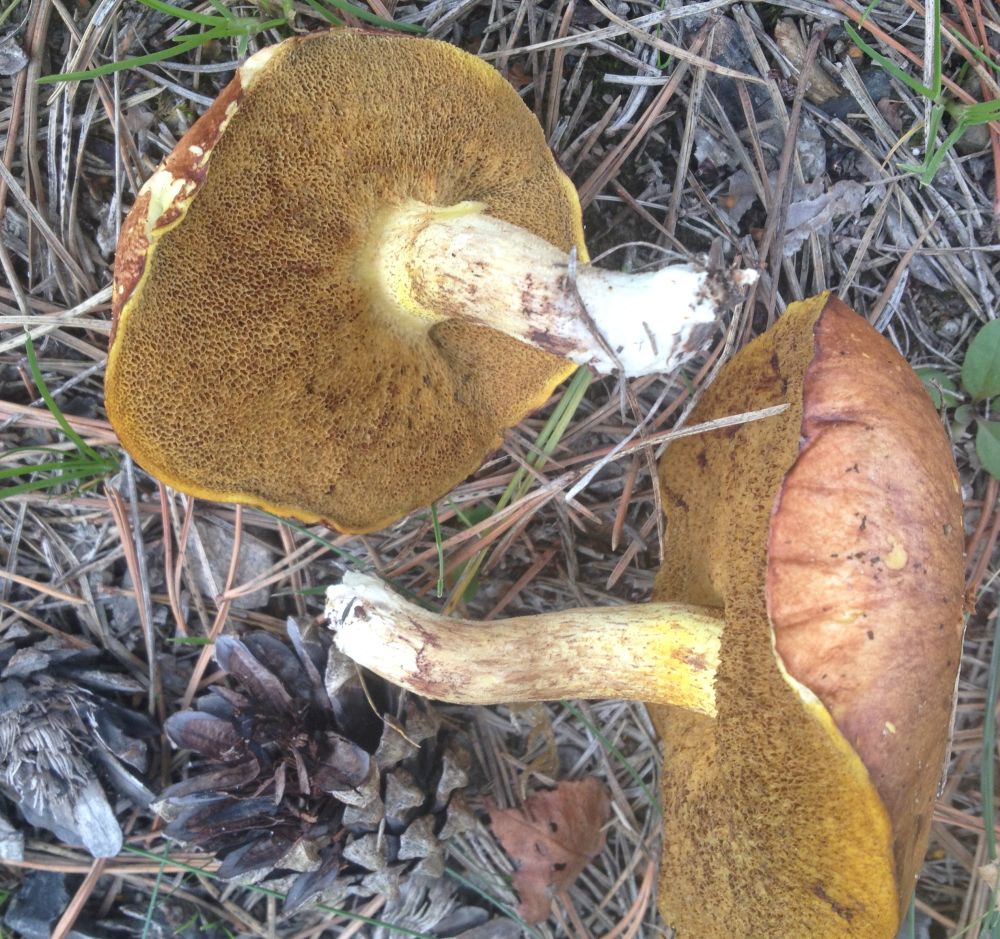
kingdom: Fungi
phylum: Basidiomycota
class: Agaricomycetes
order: Boletales
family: Suillaceae
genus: Suillus
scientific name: Suillus granulatus
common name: kornet slimrørhat
